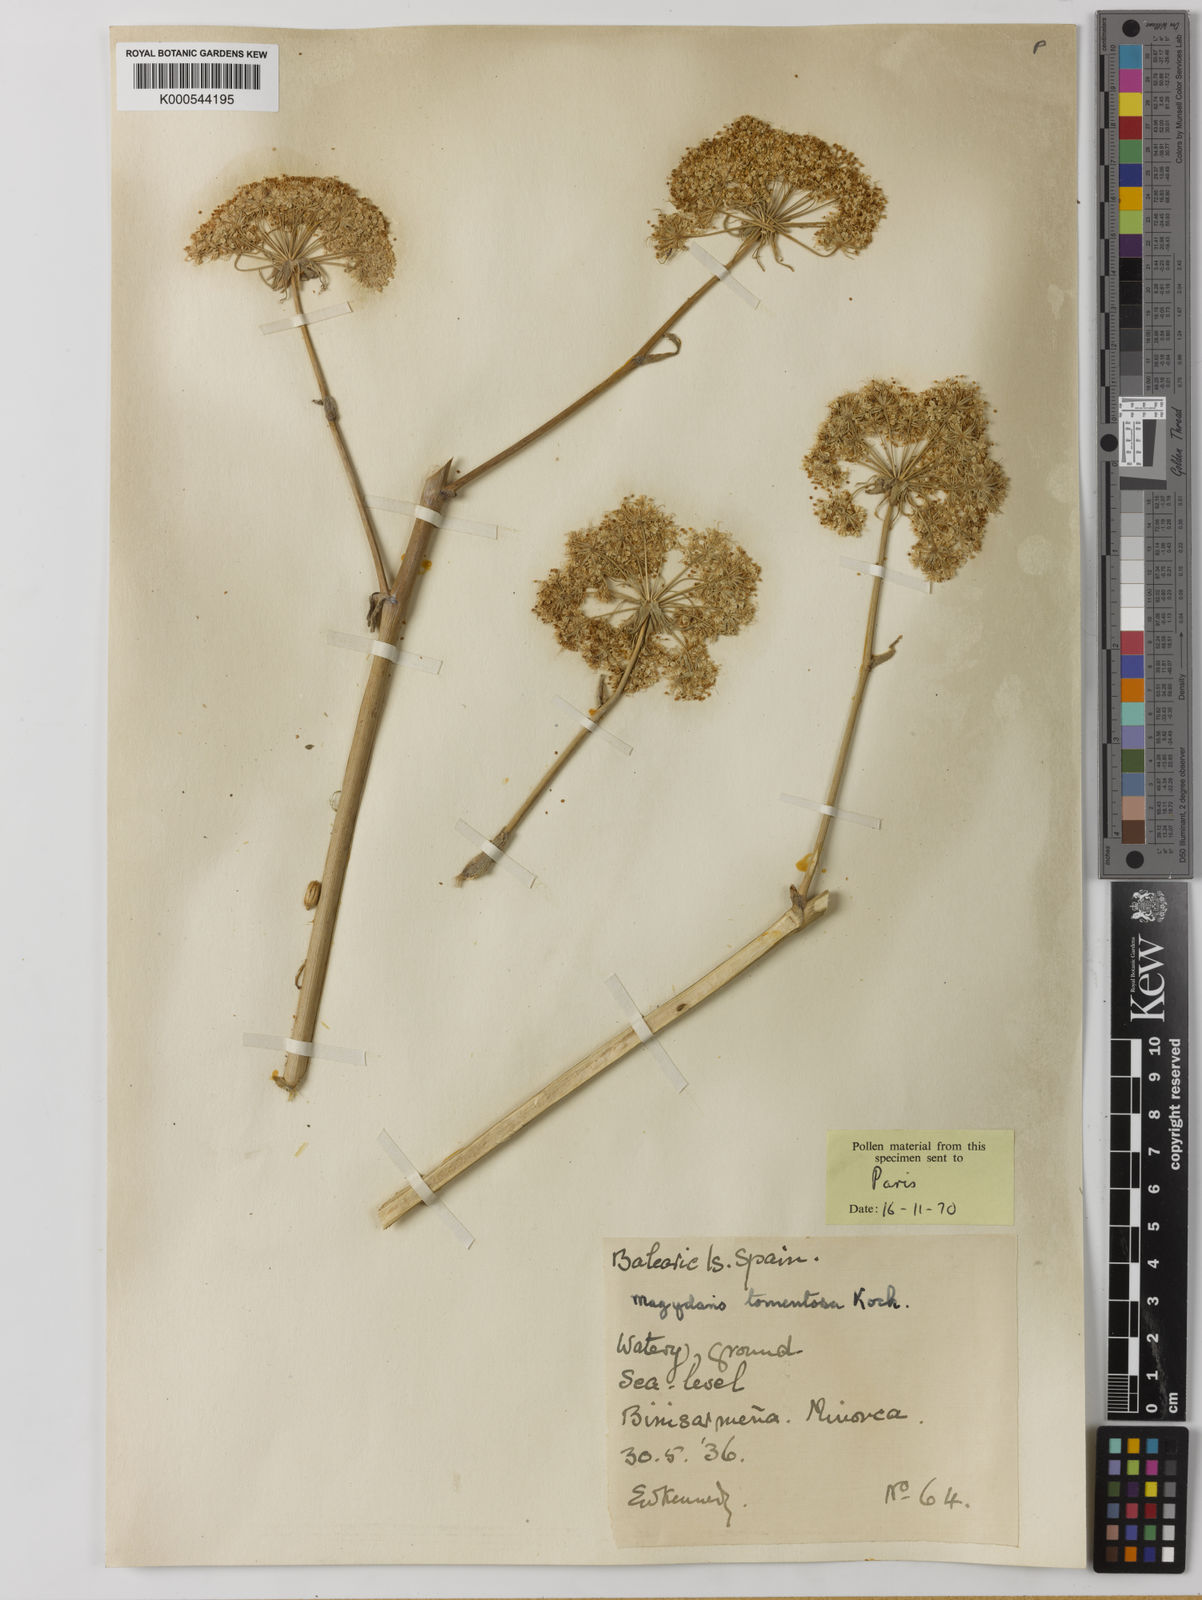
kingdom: Plantae
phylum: Tracheophyta
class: Magnoliopsida
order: Apiales
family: Apiaceae
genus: Magydaris
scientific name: Magydaris pastinacea
